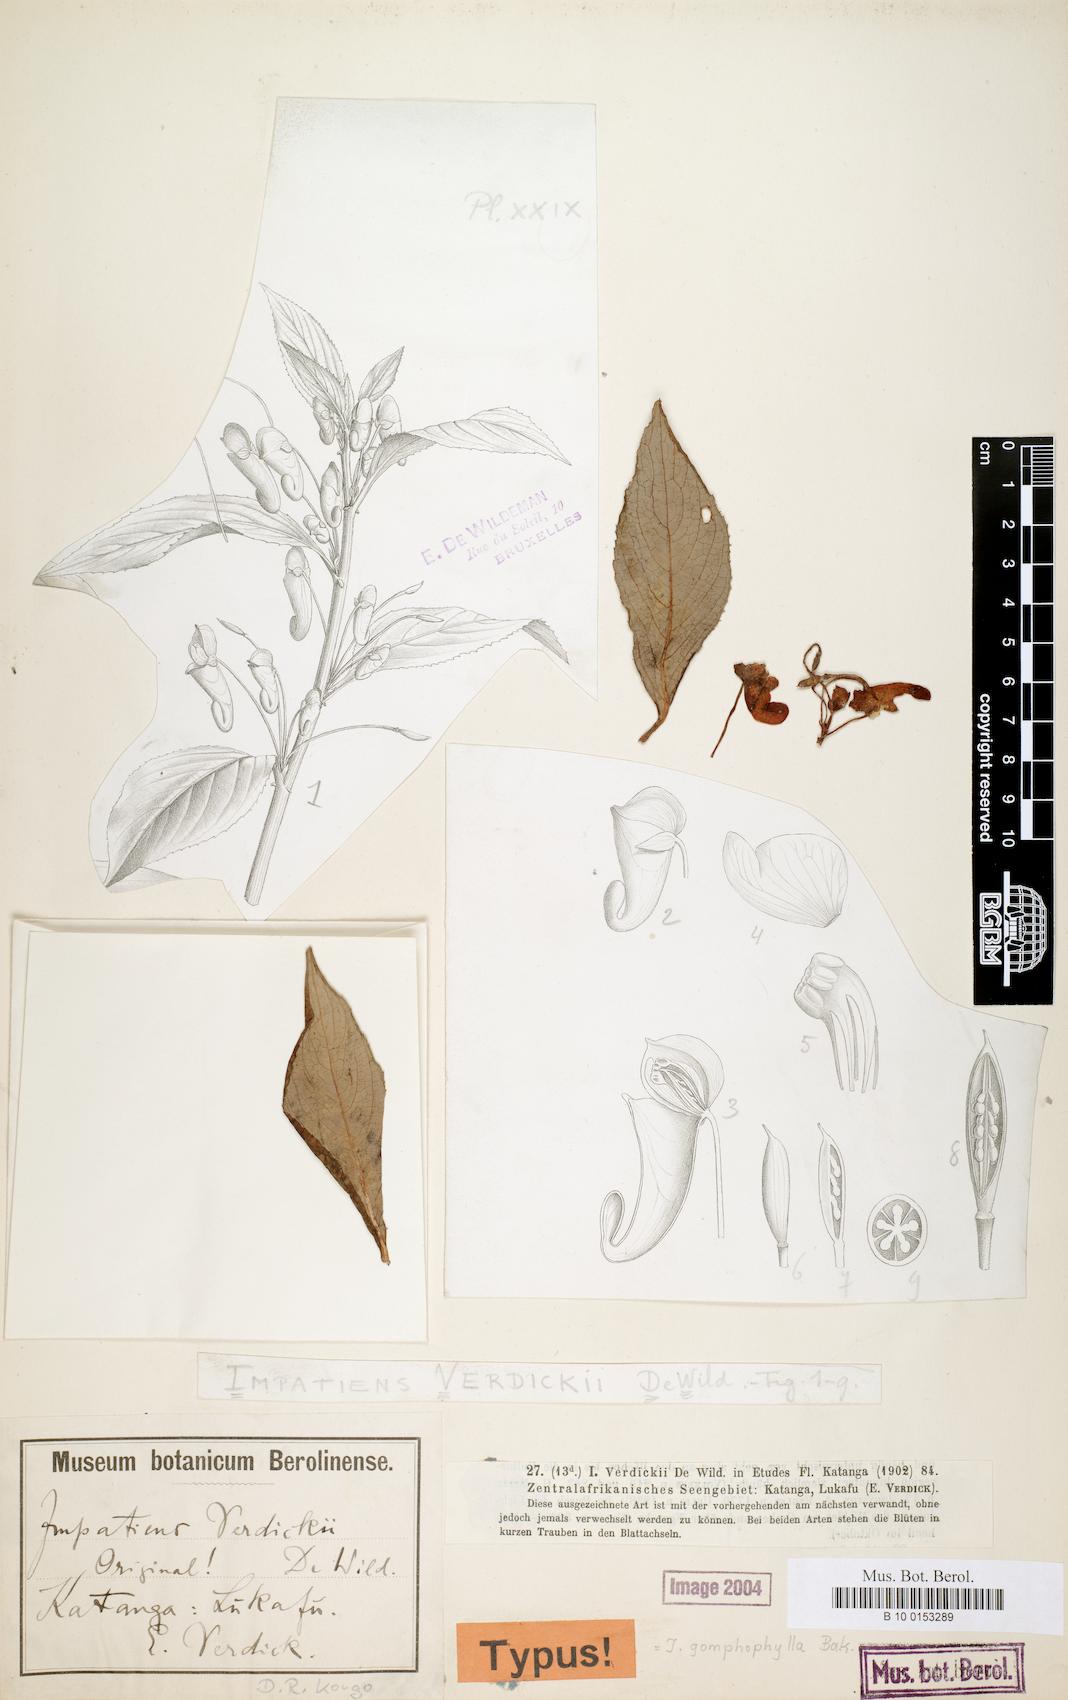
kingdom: Plantae
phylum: Tracheophyta
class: Magnoliopsida
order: Ericales
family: Balsaminaceae
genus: Impatiens
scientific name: Impatiens gomphophylla
